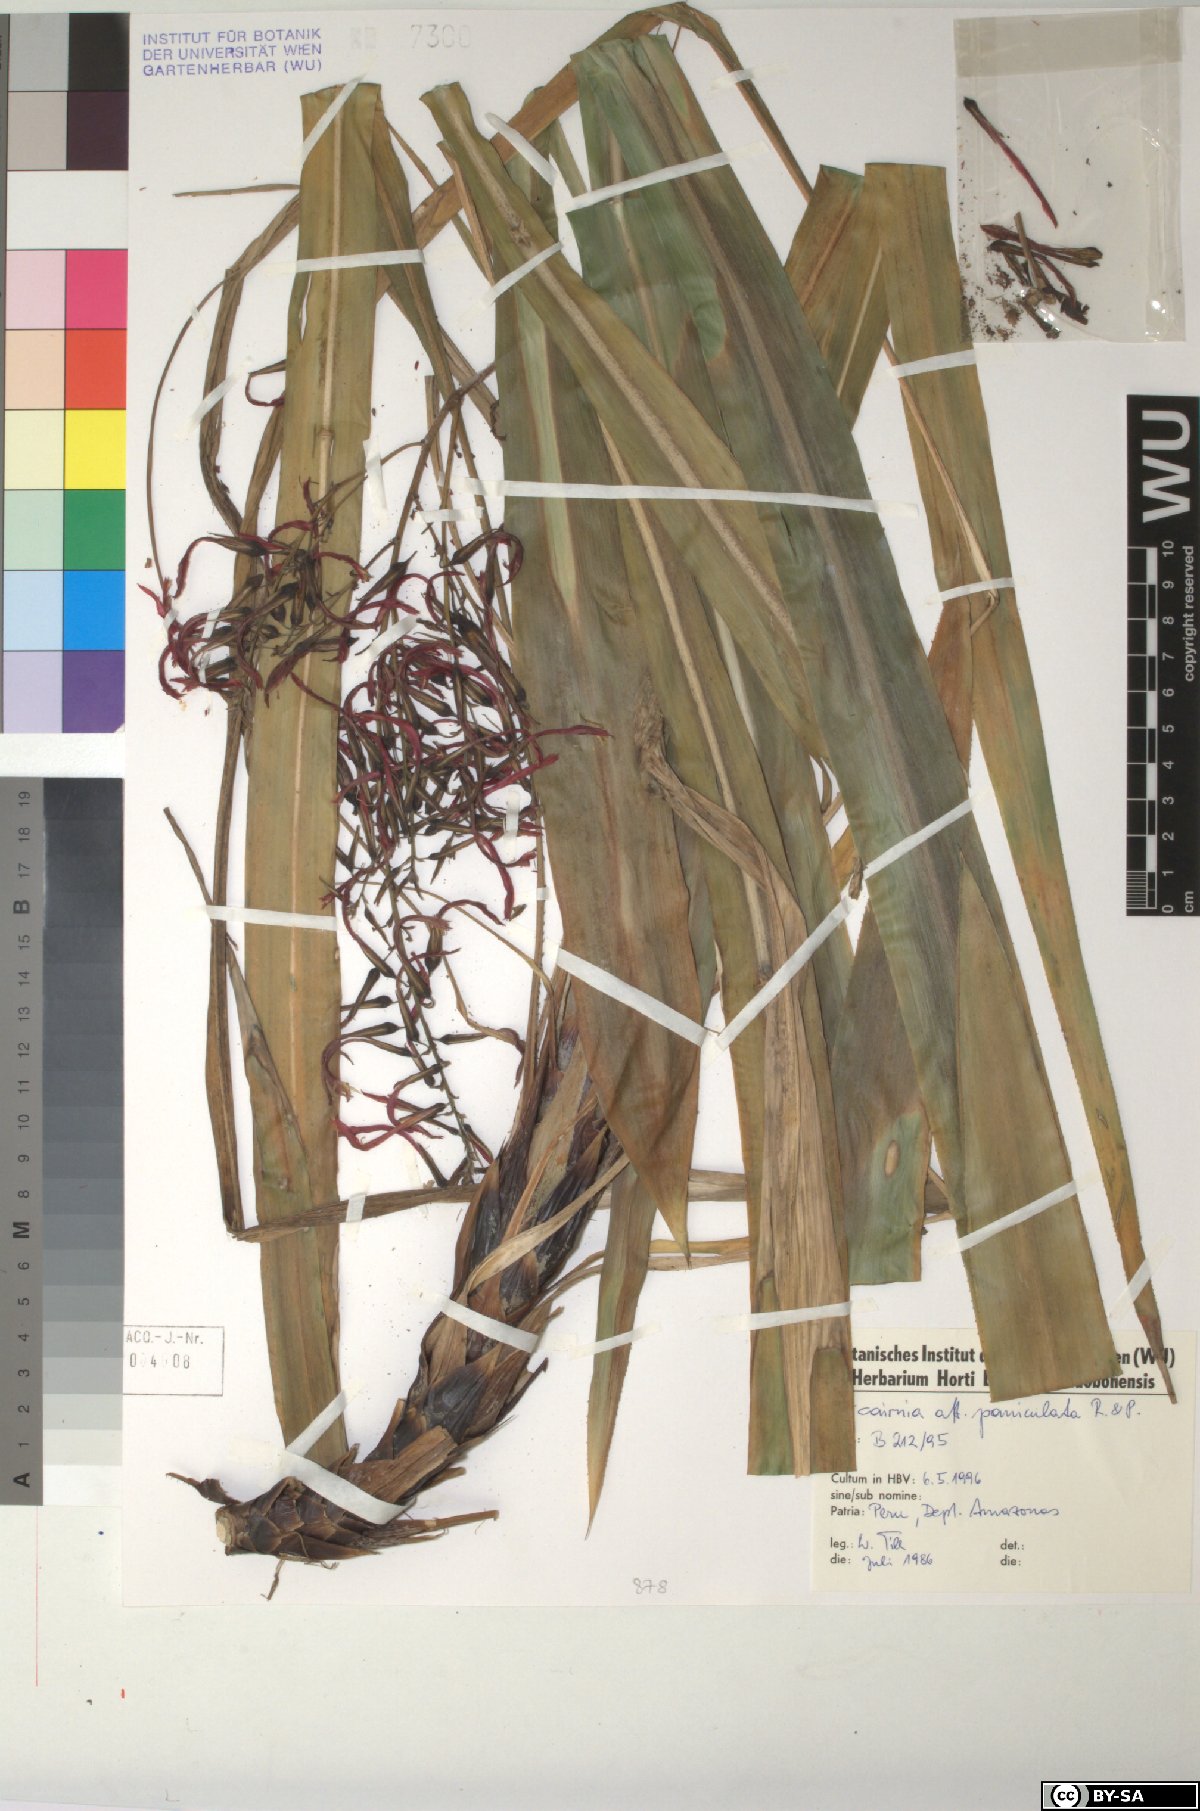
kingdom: Plantae
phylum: Tracheophyta
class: Liliopsida
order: Poales
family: Bromeliaceae
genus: Pitcairnia
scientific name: Pitcairnia paniculata
